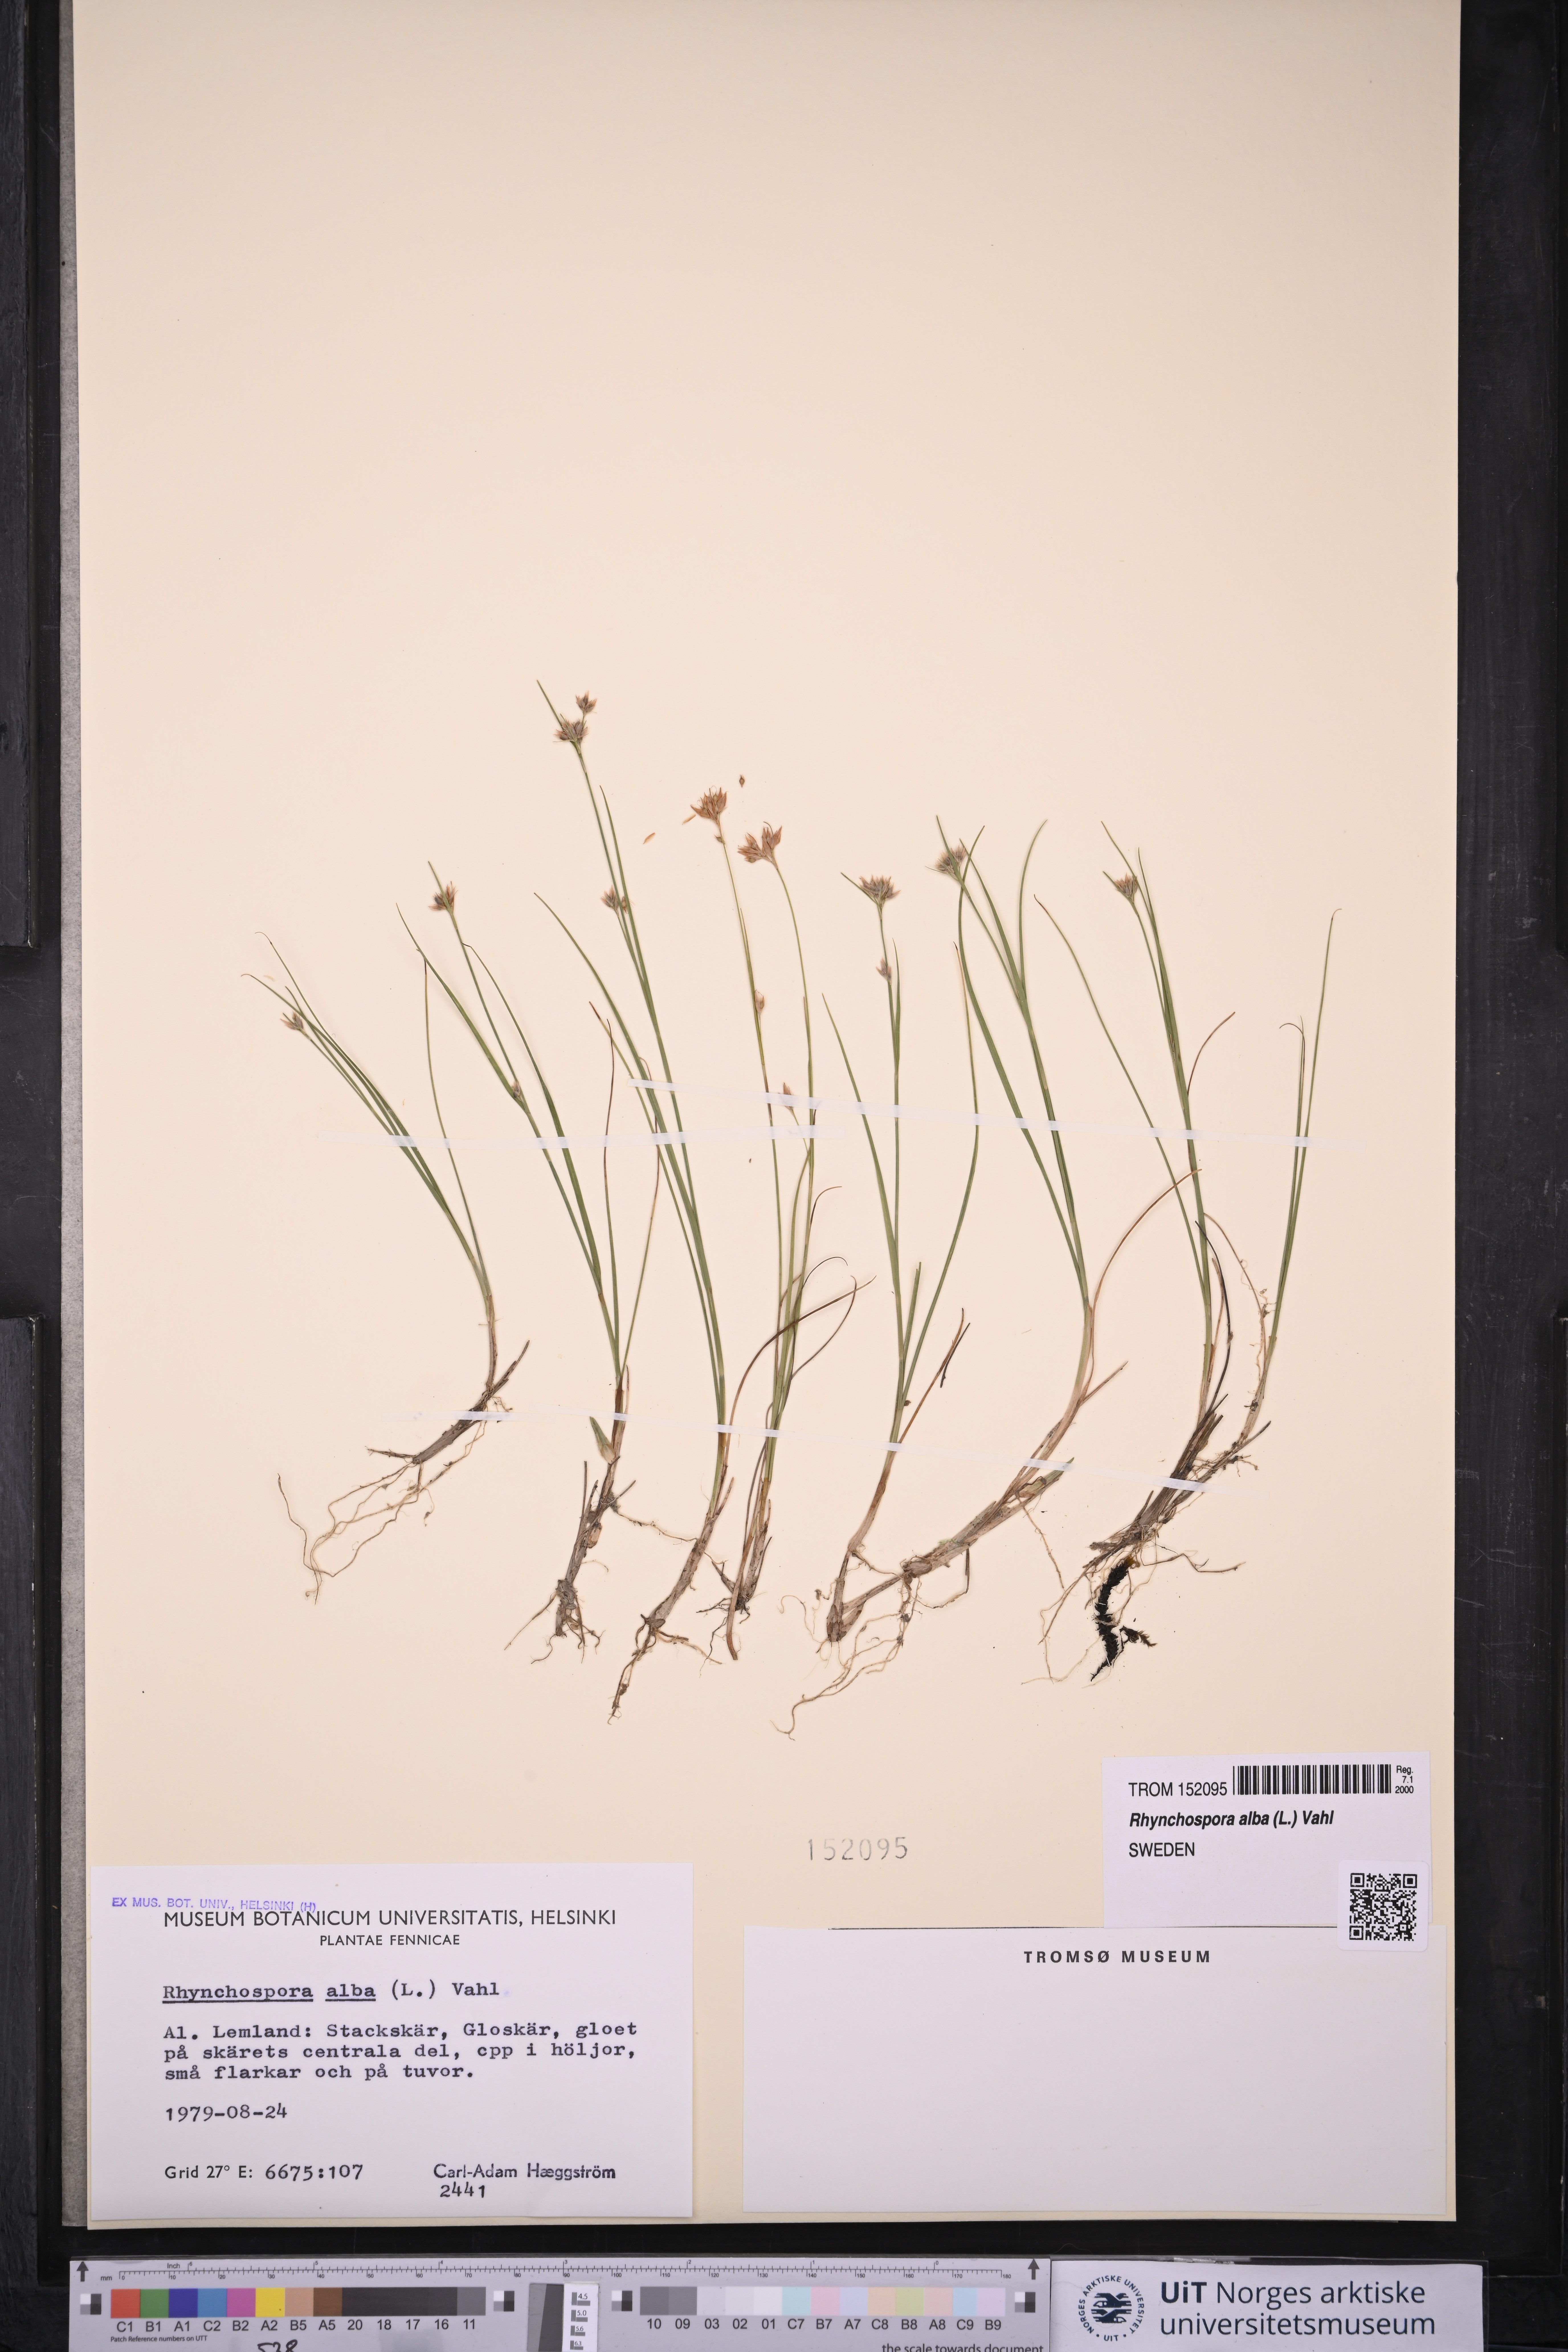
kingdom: Plantae
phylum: Tracheophyta
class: Liliopsida
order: Poales
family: Cyperaceae
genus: Rhynchospora
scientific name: Rhynchospora alba
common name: White beak-sedge
